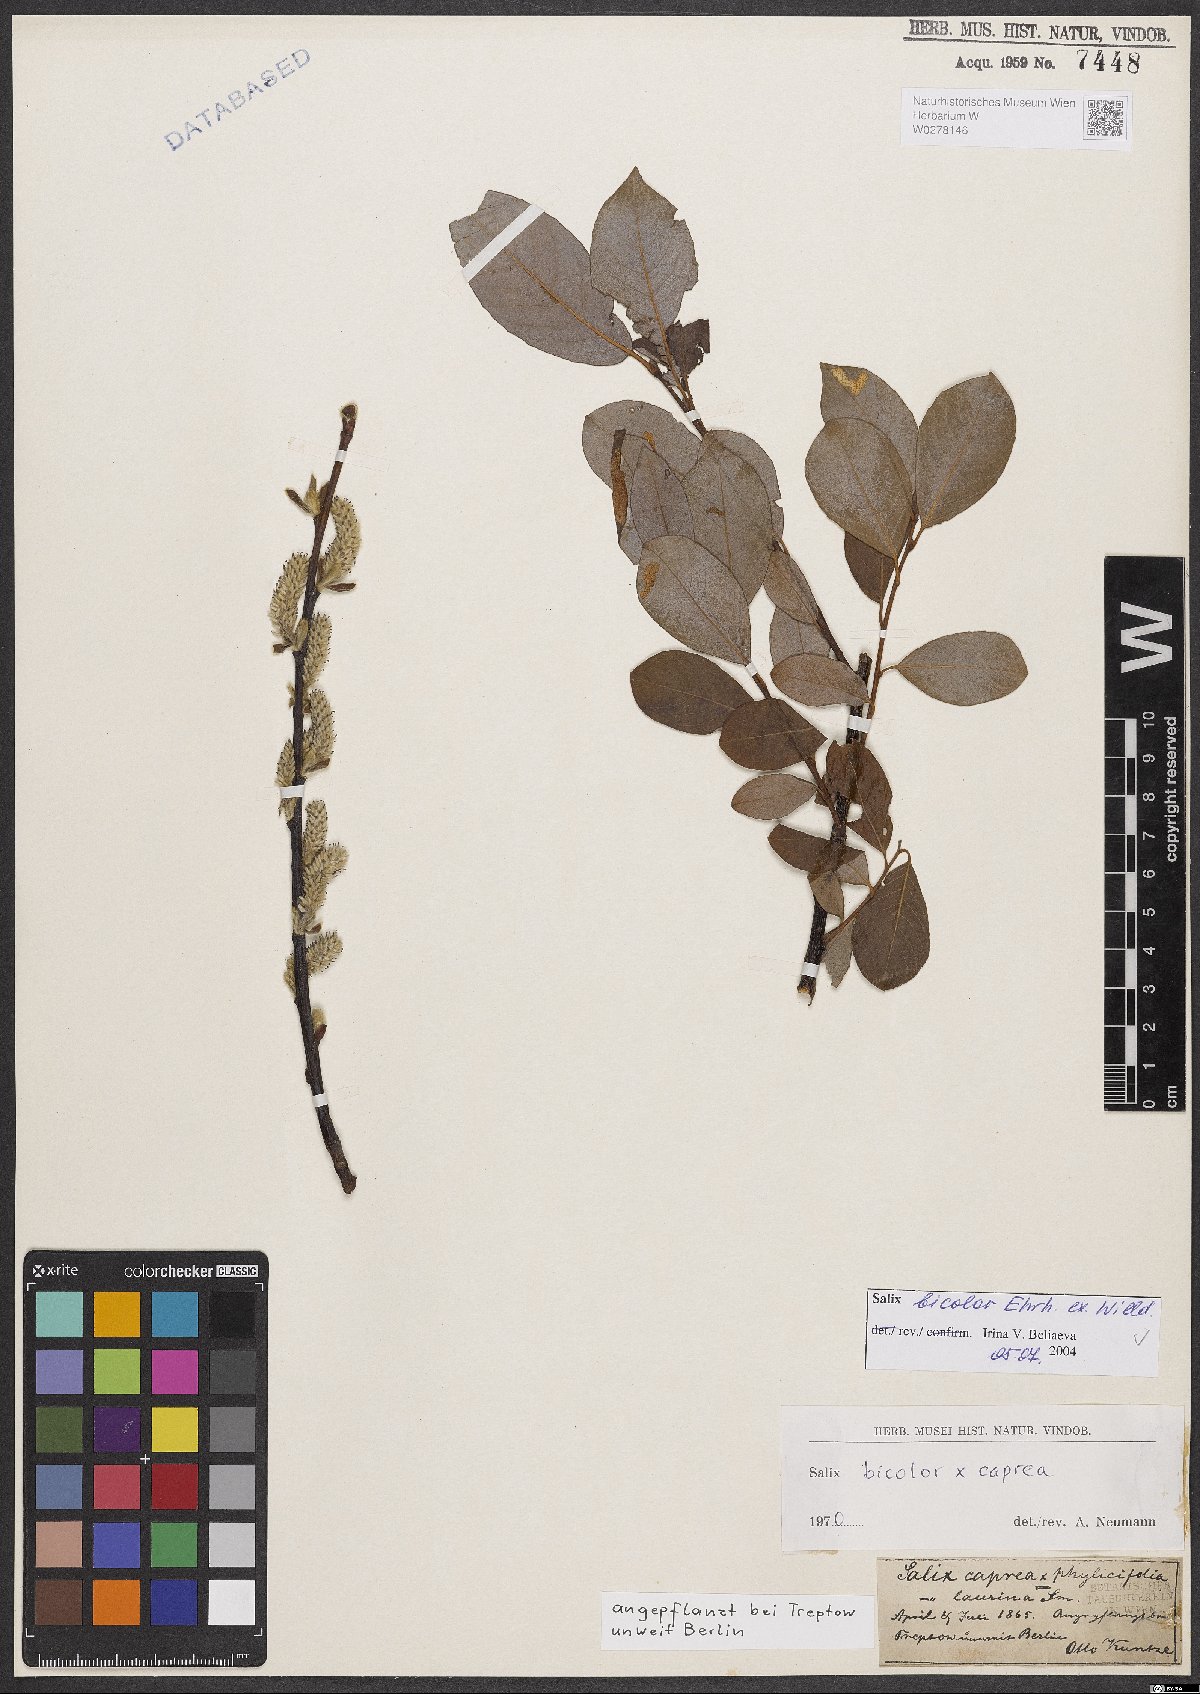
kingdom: Plantae
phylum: Tracheophyta
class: Magnoliopsida
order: Malpighiales
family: Salicaceae
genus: Salix
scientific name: Salix bicolor
